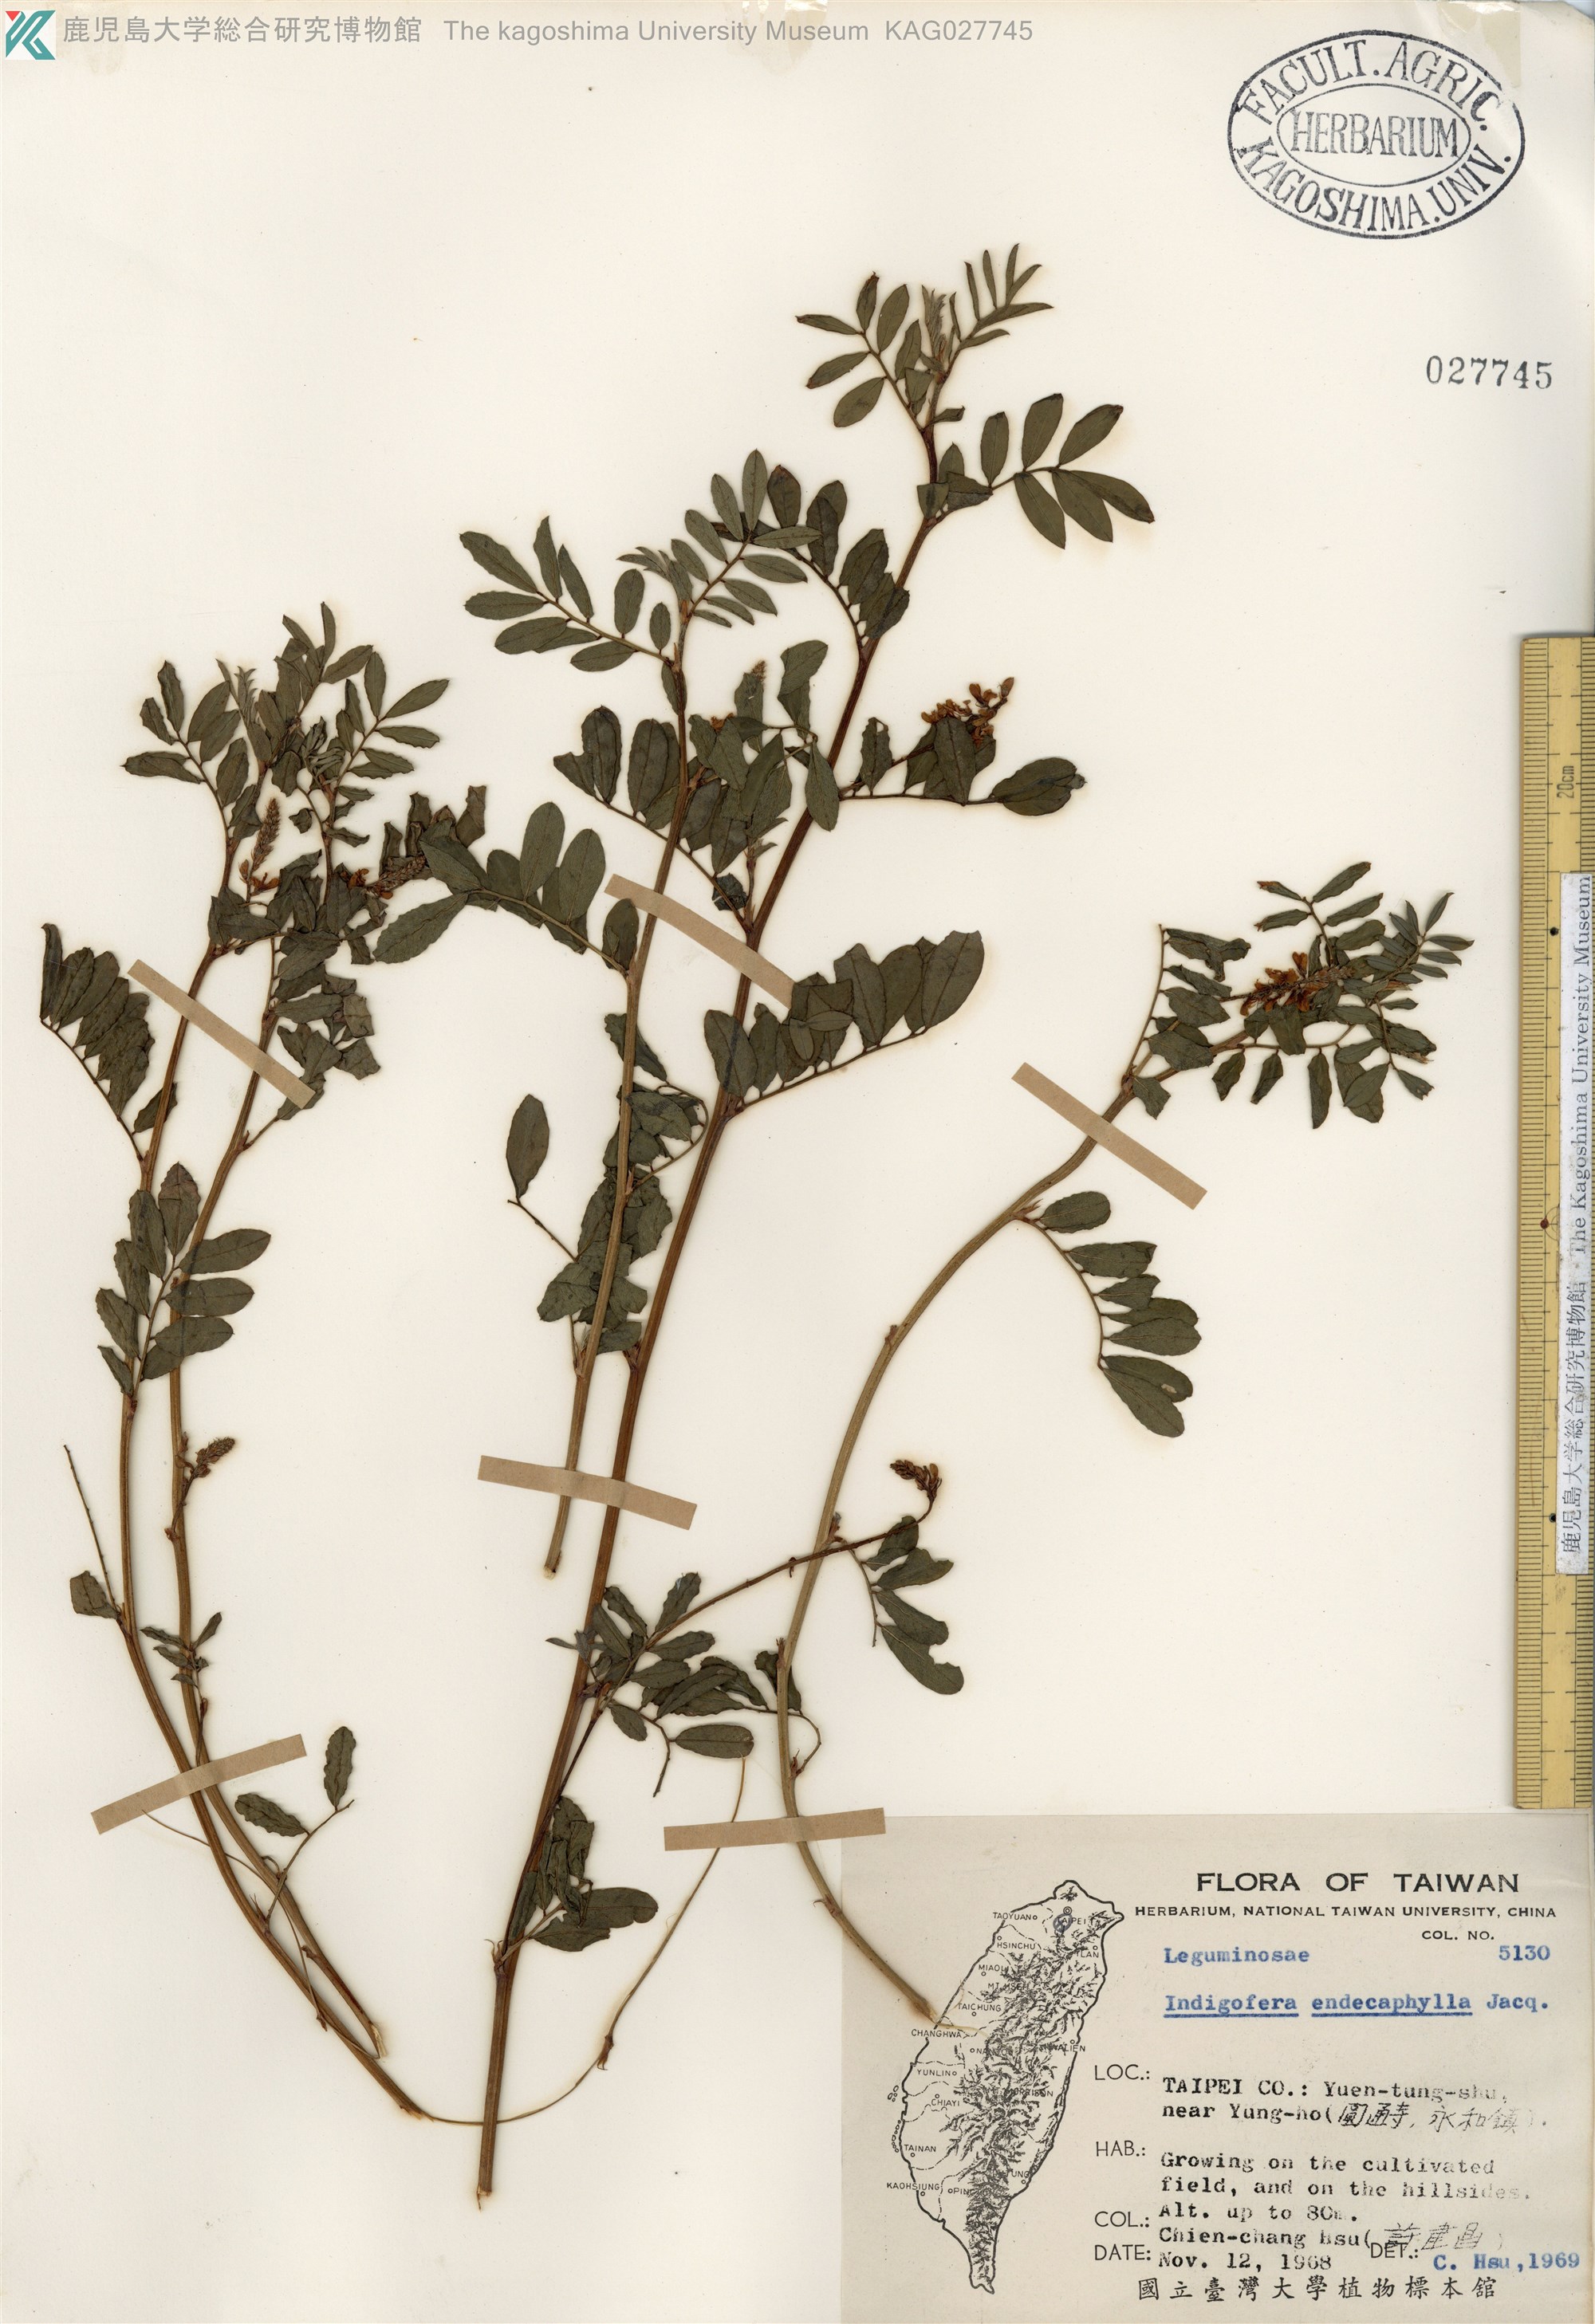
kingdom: Plantae
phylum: Tracheophyta
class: Magnoliopsida
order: Fabales
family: Fabaceae
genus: Indigofera
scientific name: Indigofera hendecaphylla
